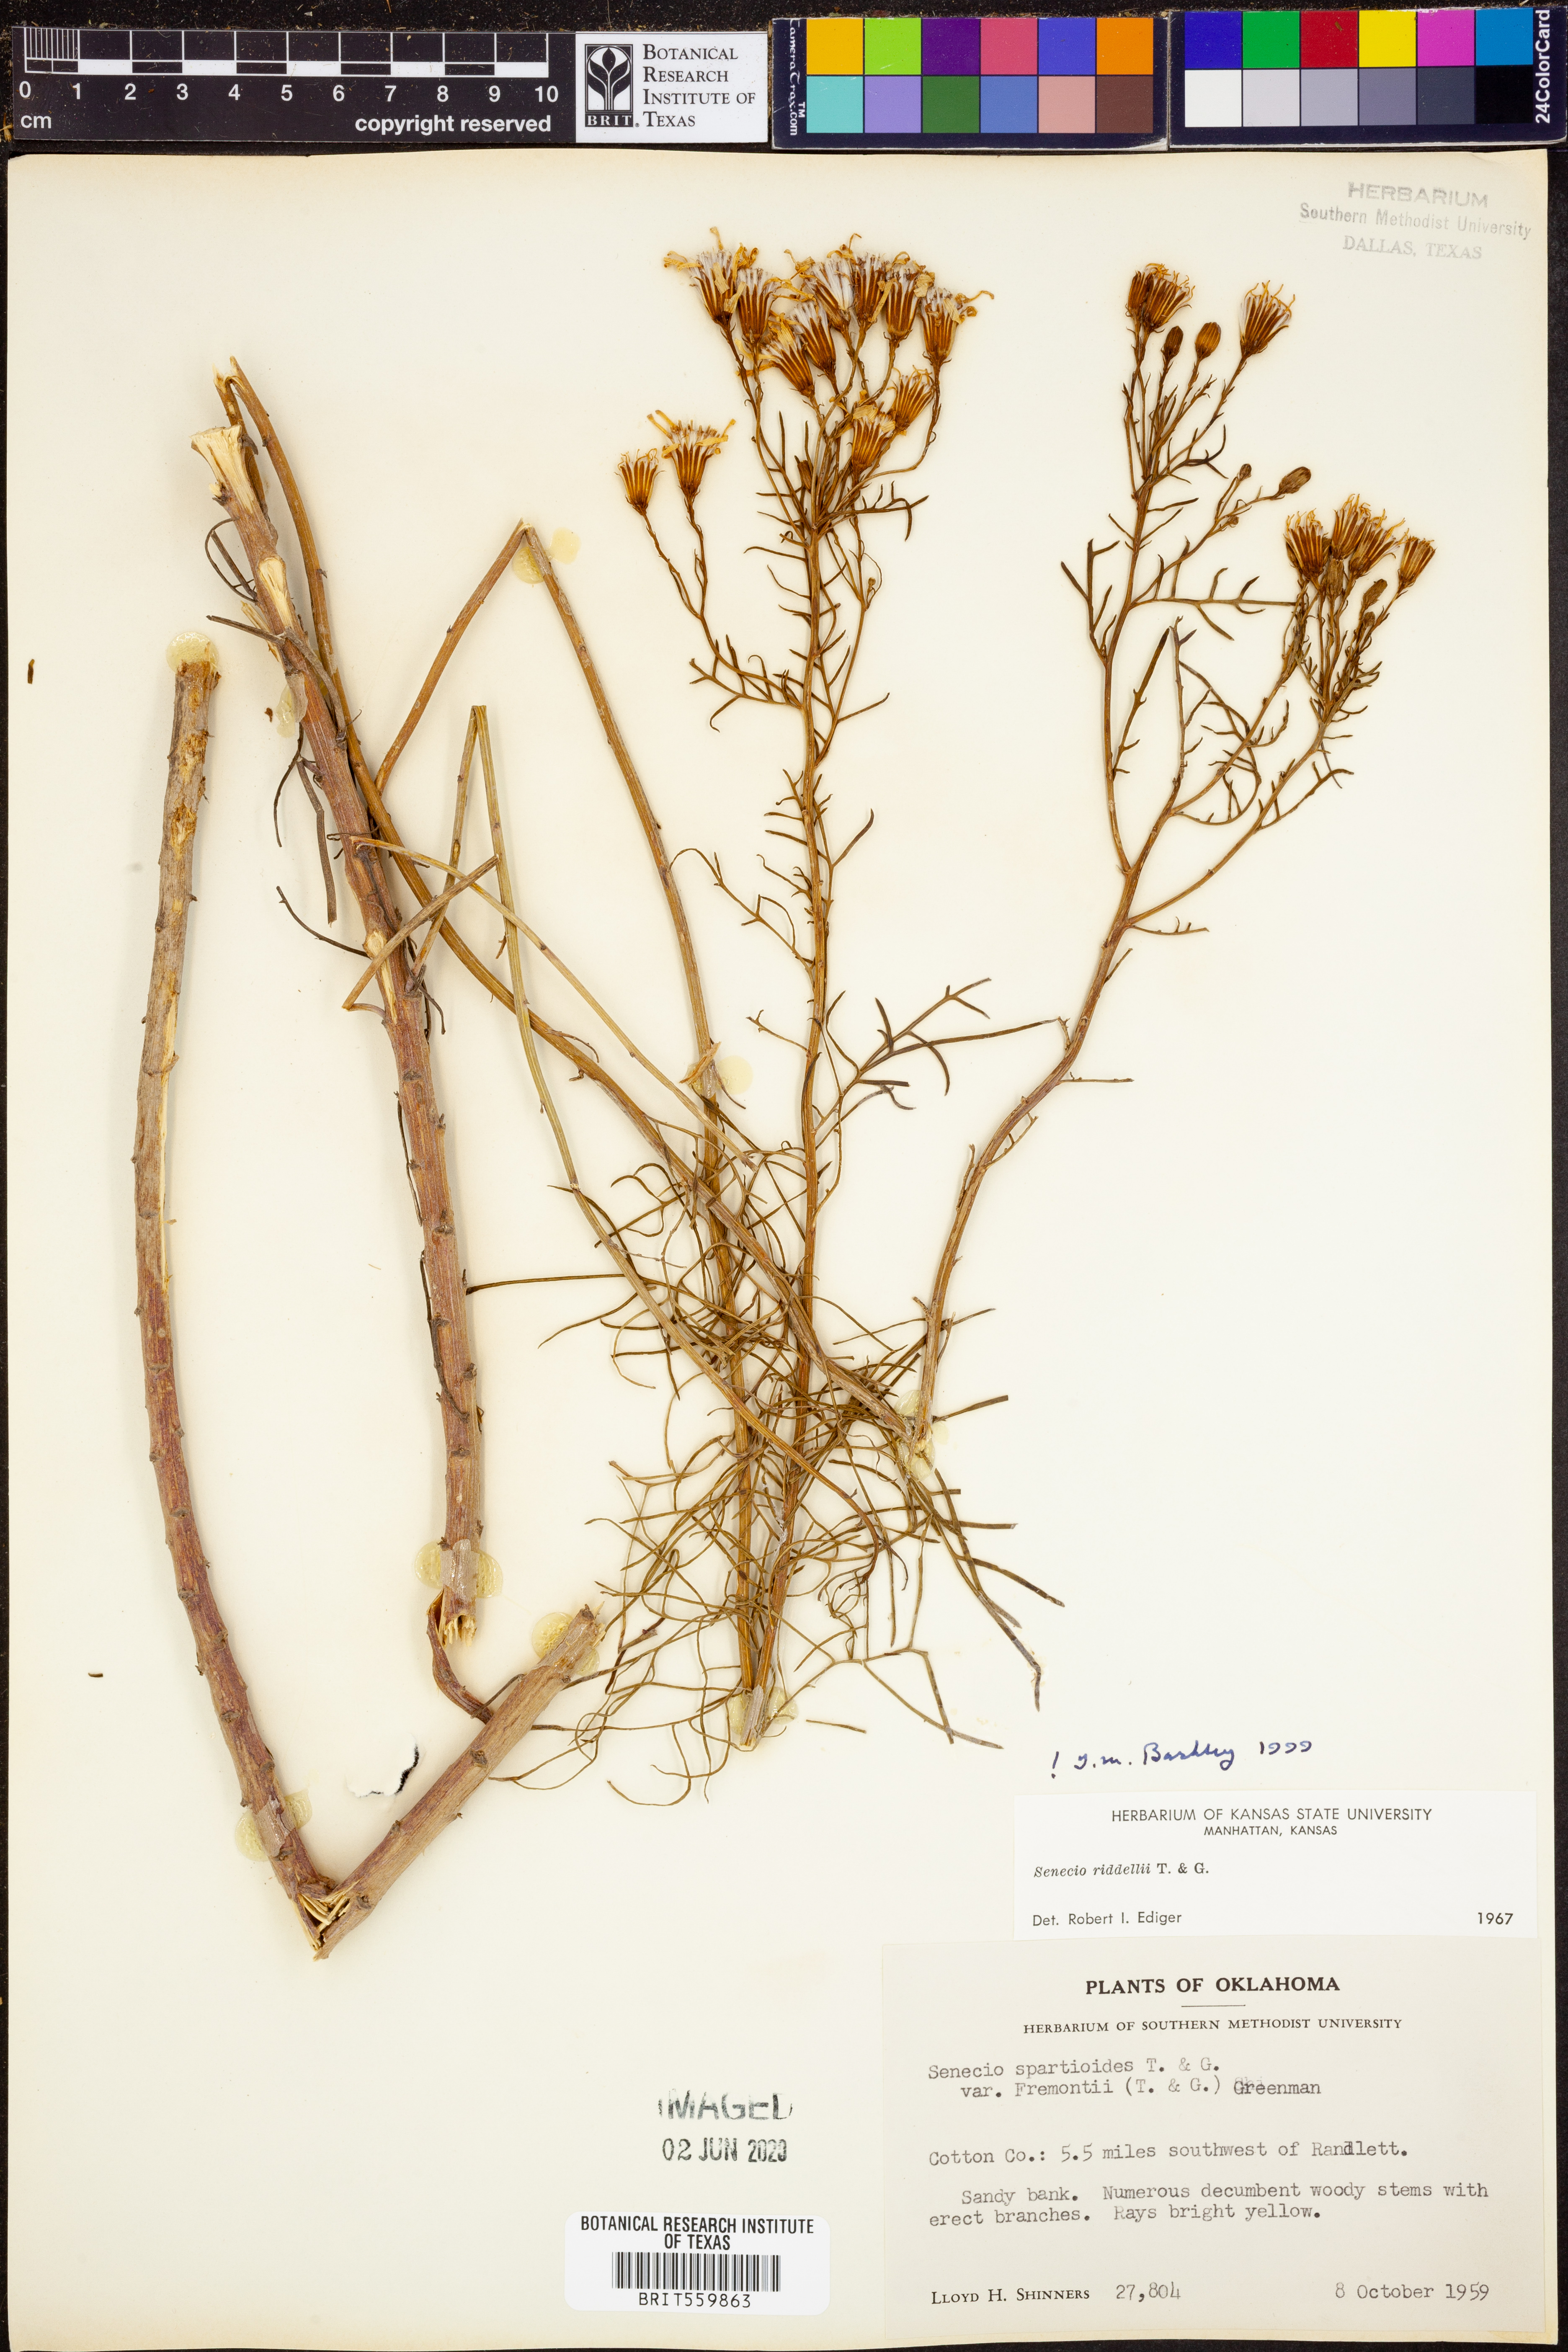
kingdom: Plantae
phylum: Tracheophyta
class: Magnoliopsida
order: Asterales
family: Asteraceae
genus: Senecio
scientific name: Senecio riddellii
